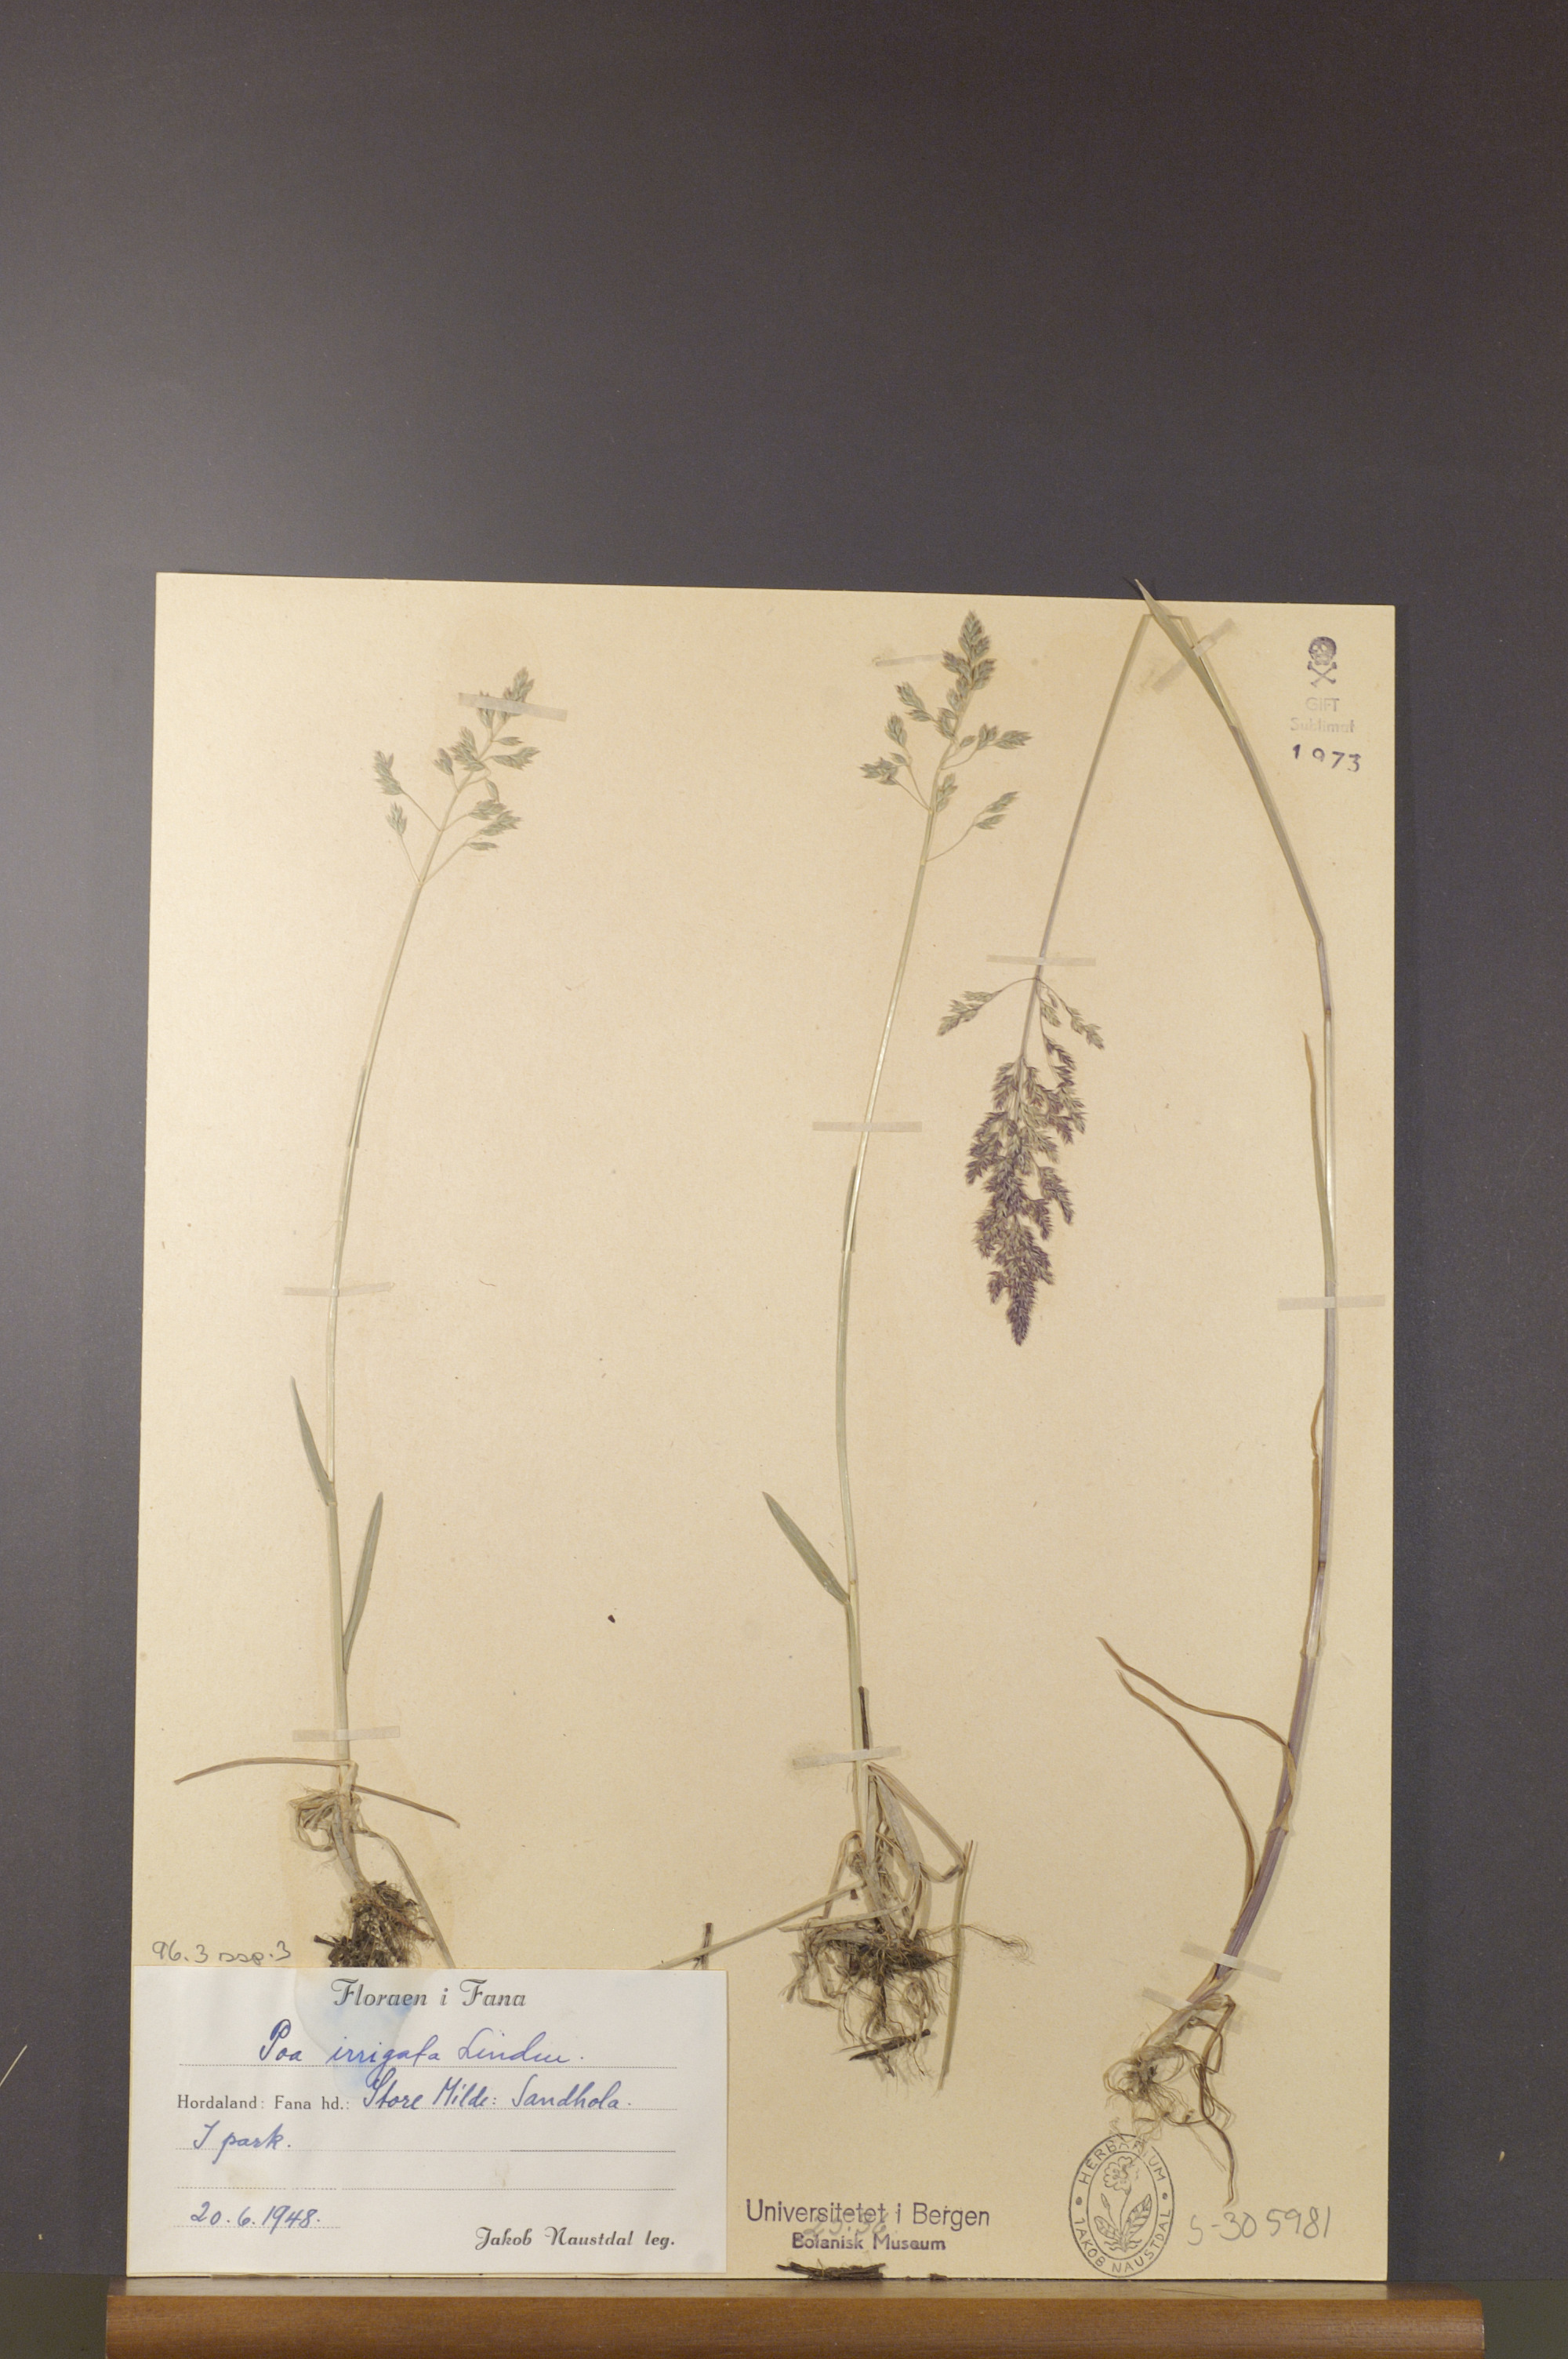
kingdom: Plantae
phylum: Tracheophyta
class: Liliopsida
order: Poales
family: Poaceae
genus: Poa
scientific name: Poa humilis
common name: Spreading meadow-grass
